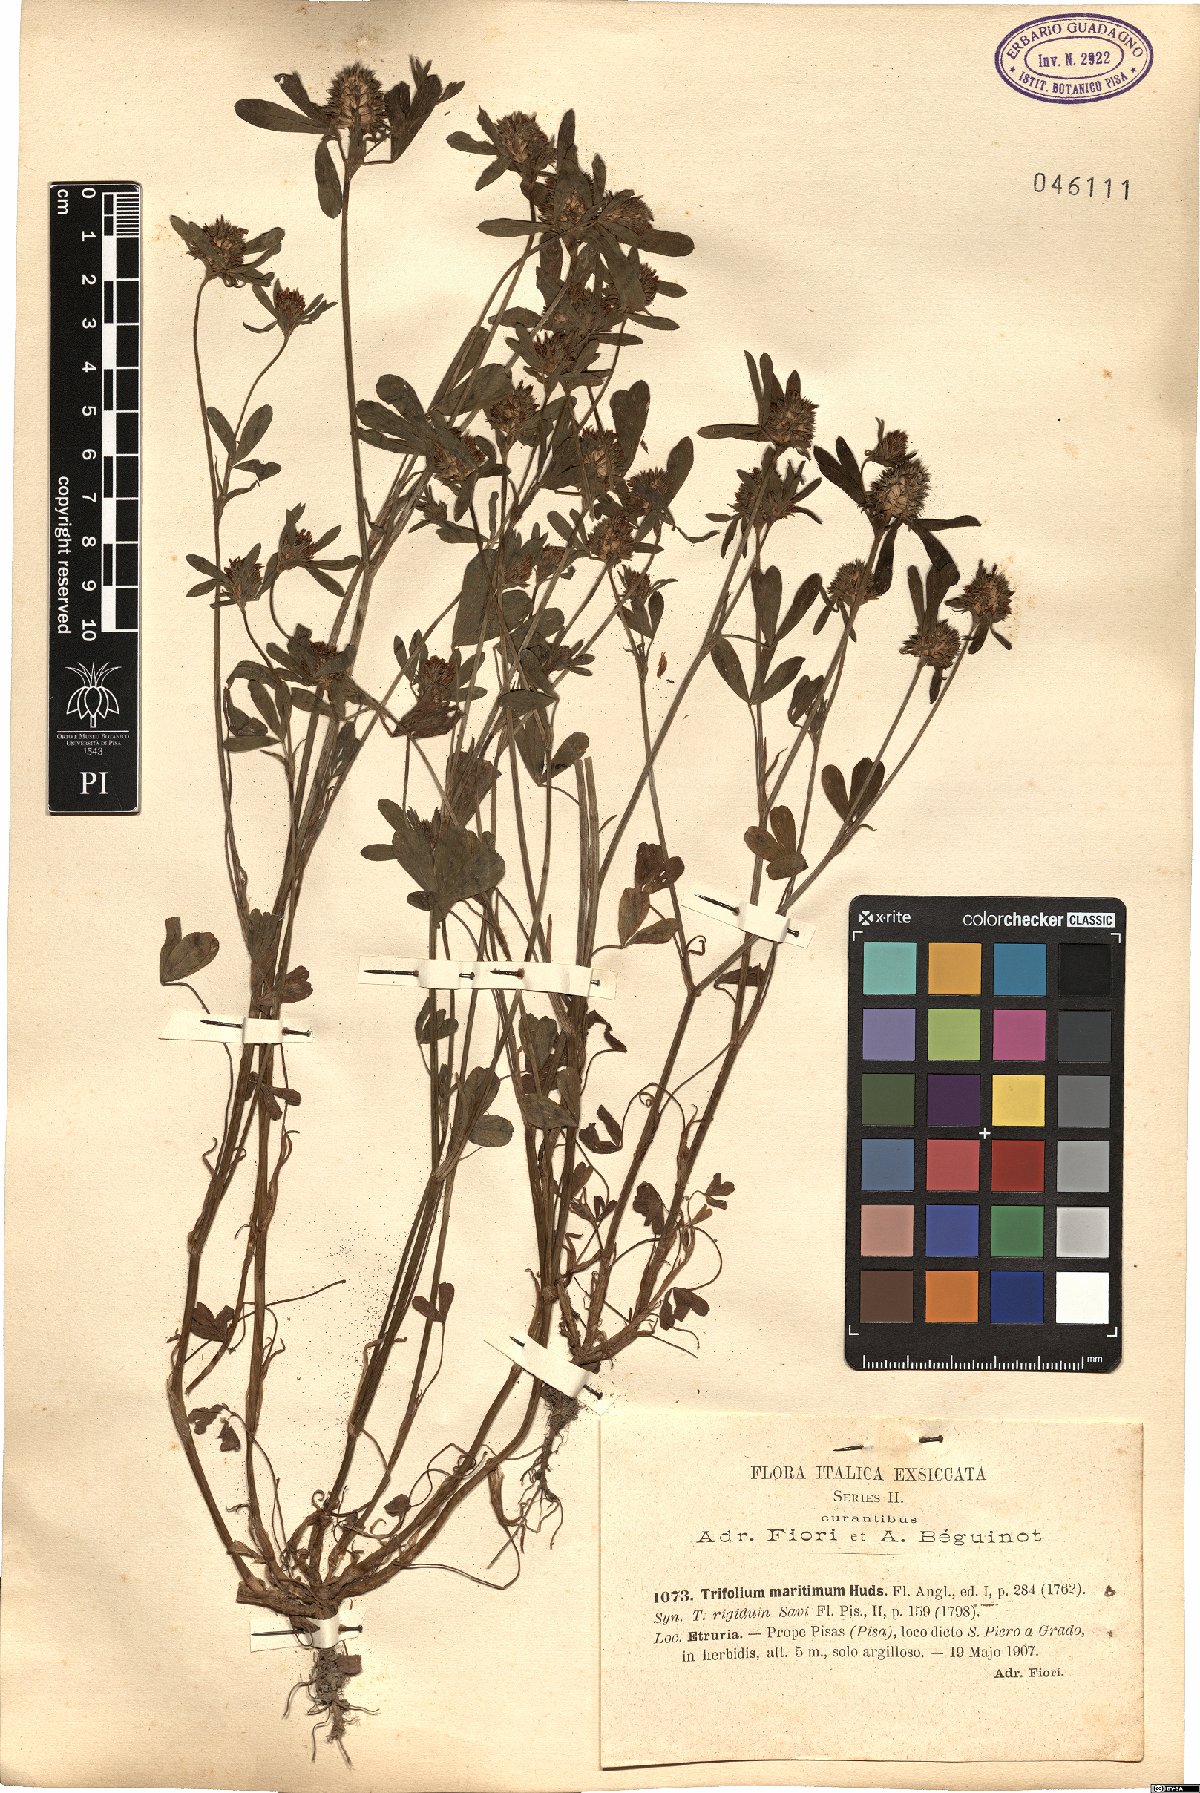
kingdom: Plantae
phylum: Tracheophyta
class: Magnoliopsida
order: Fabales
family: Fabaceae
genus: Trifolium
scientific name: Trifolium squamosum
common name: Sea clover
